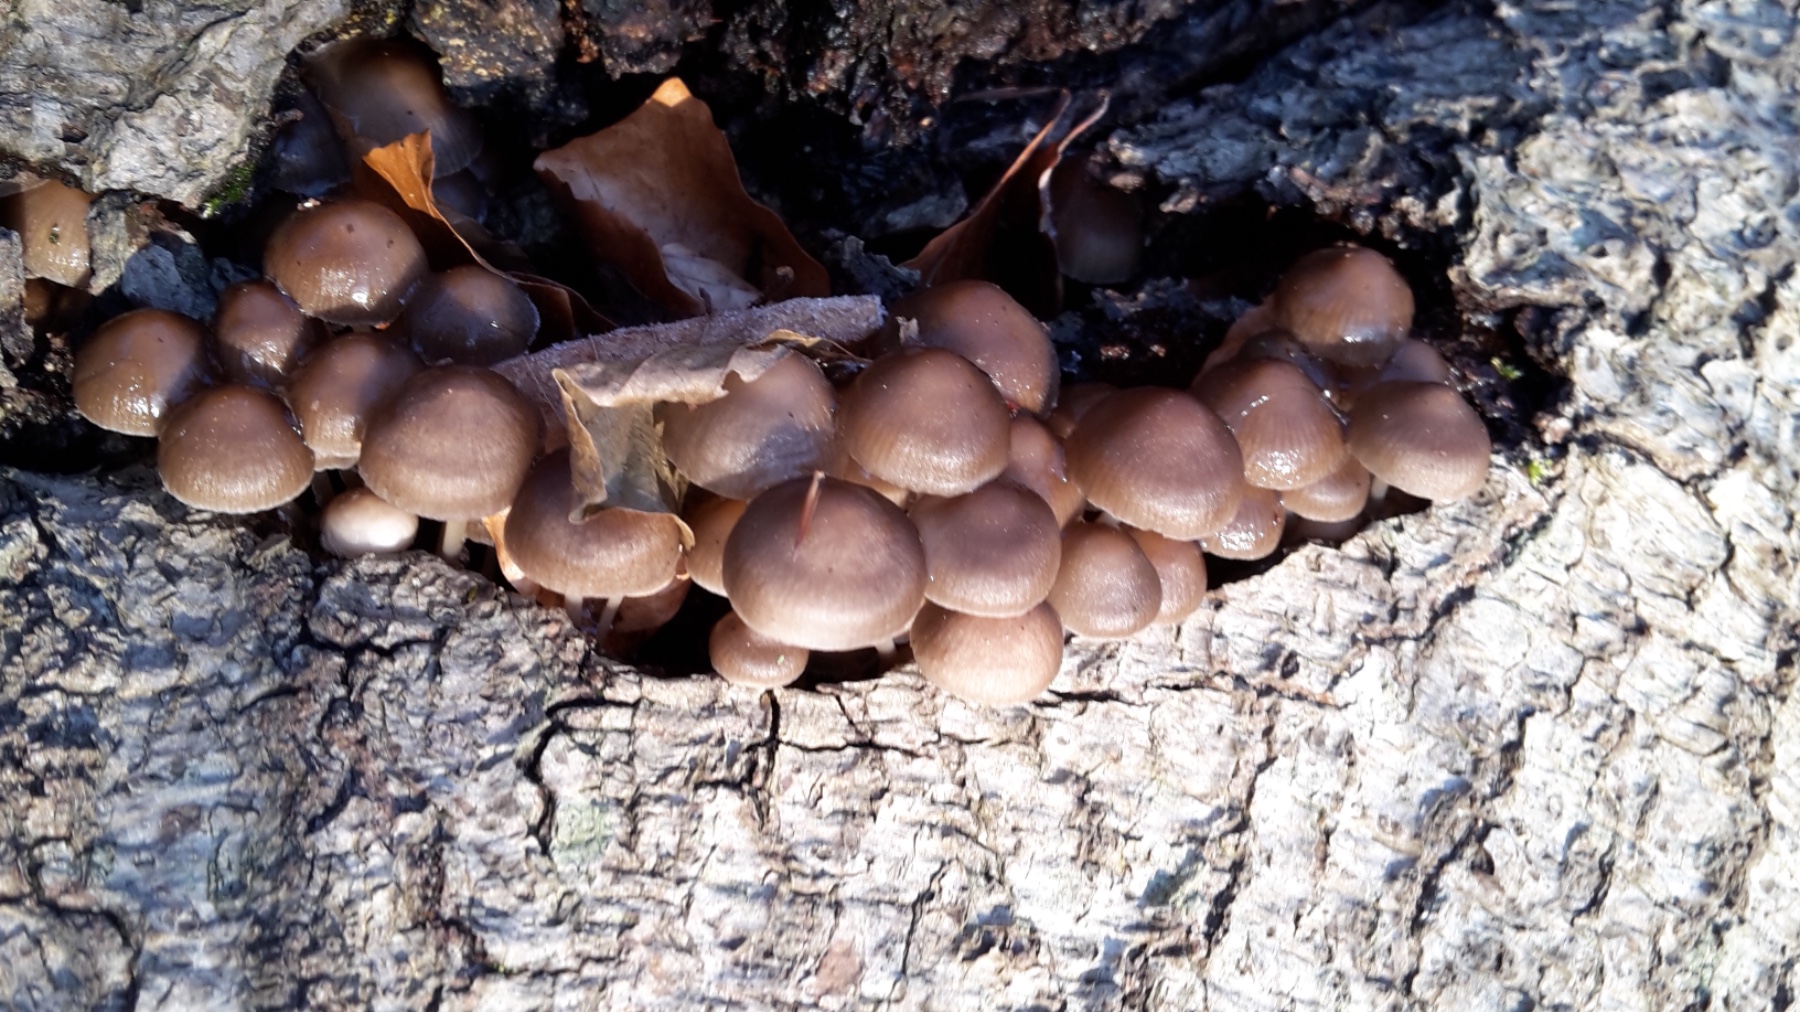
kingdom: Fungi
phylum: Basidiomycota
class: Agaricomycetes
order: Agaricales
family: Mycenaceae
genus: Mycena
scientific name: Mycena tintinnabulum
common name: vinter-huesvamp
